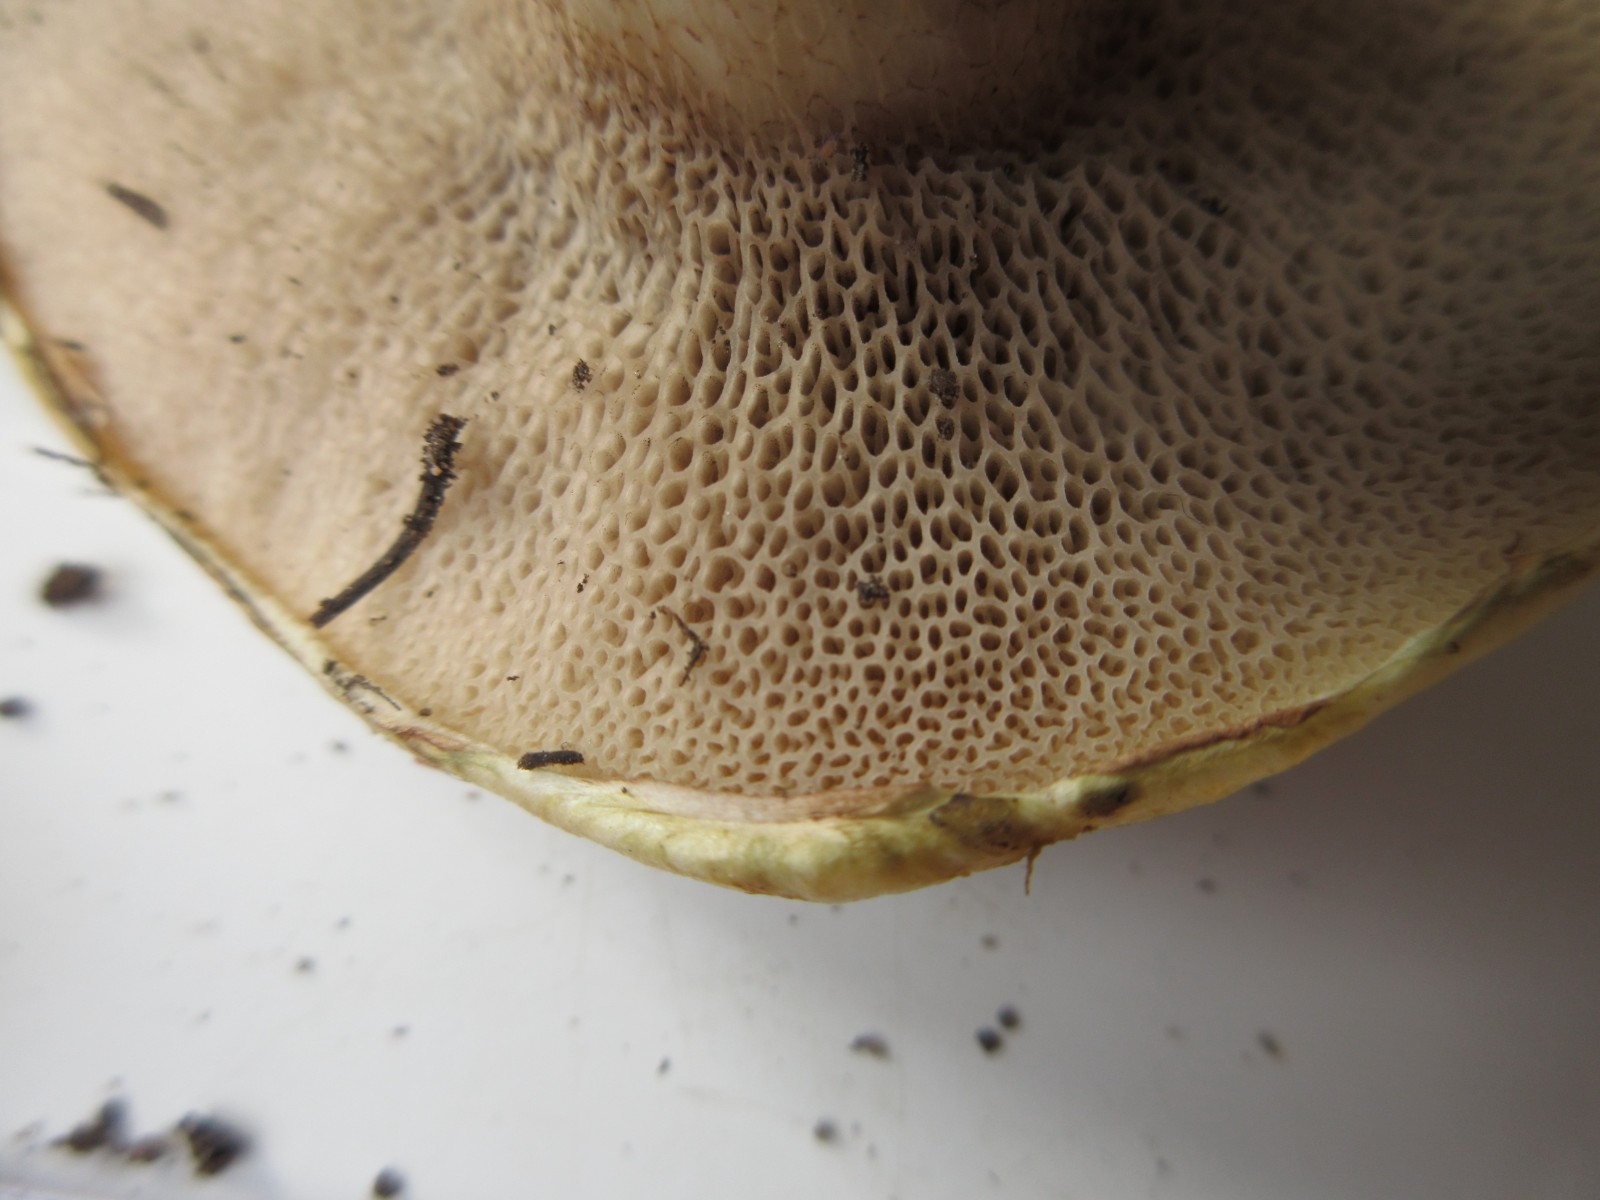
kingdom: Fungi
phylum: Basidiomycota
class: Agaricomycetes
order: Boletales
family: Suillaceae
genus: Suillus
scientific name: Suillus viscidus
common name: olivengrå slimrørhat
